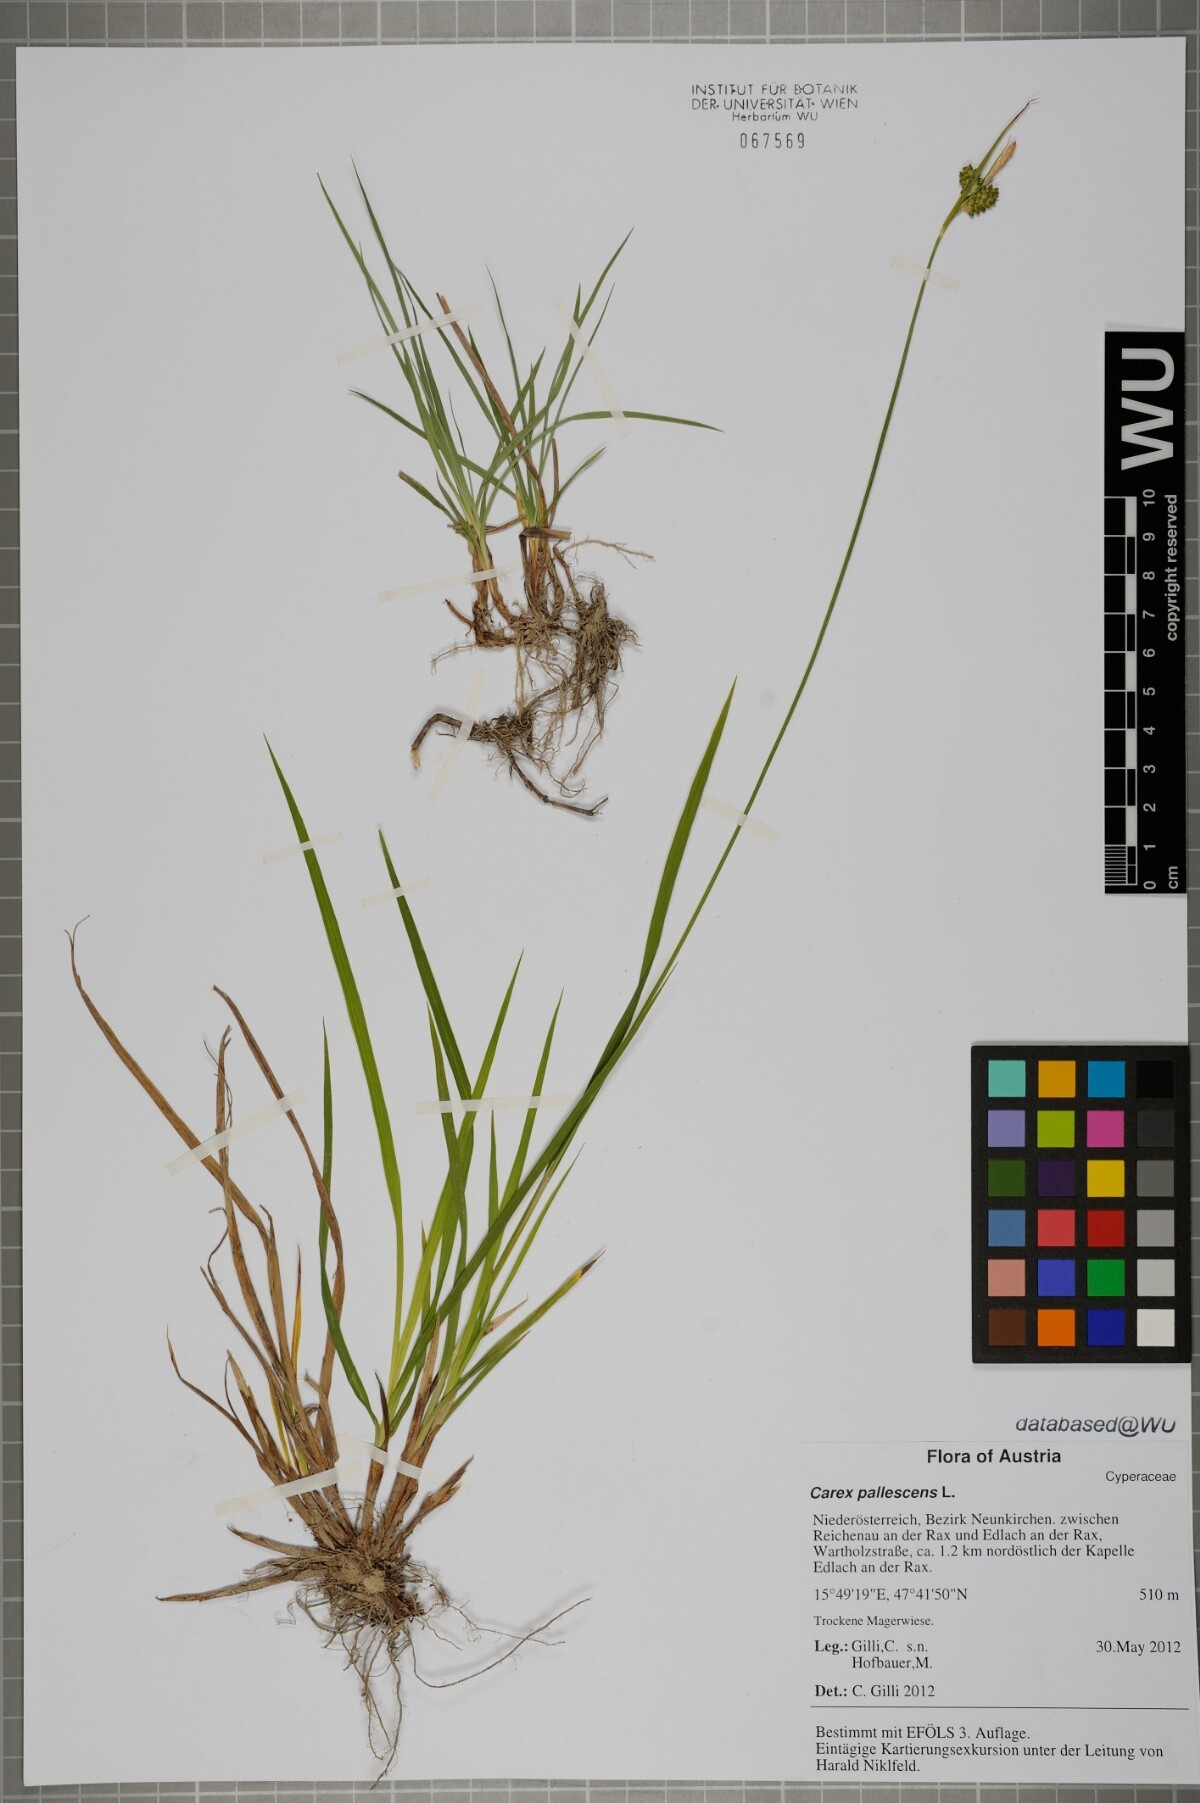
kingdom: Plantae
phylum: Tracheophyta
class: Liliopsida
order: Poales
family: Cyperaceae
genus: Carex
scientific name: Carex pallescens
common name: Pale sedge
